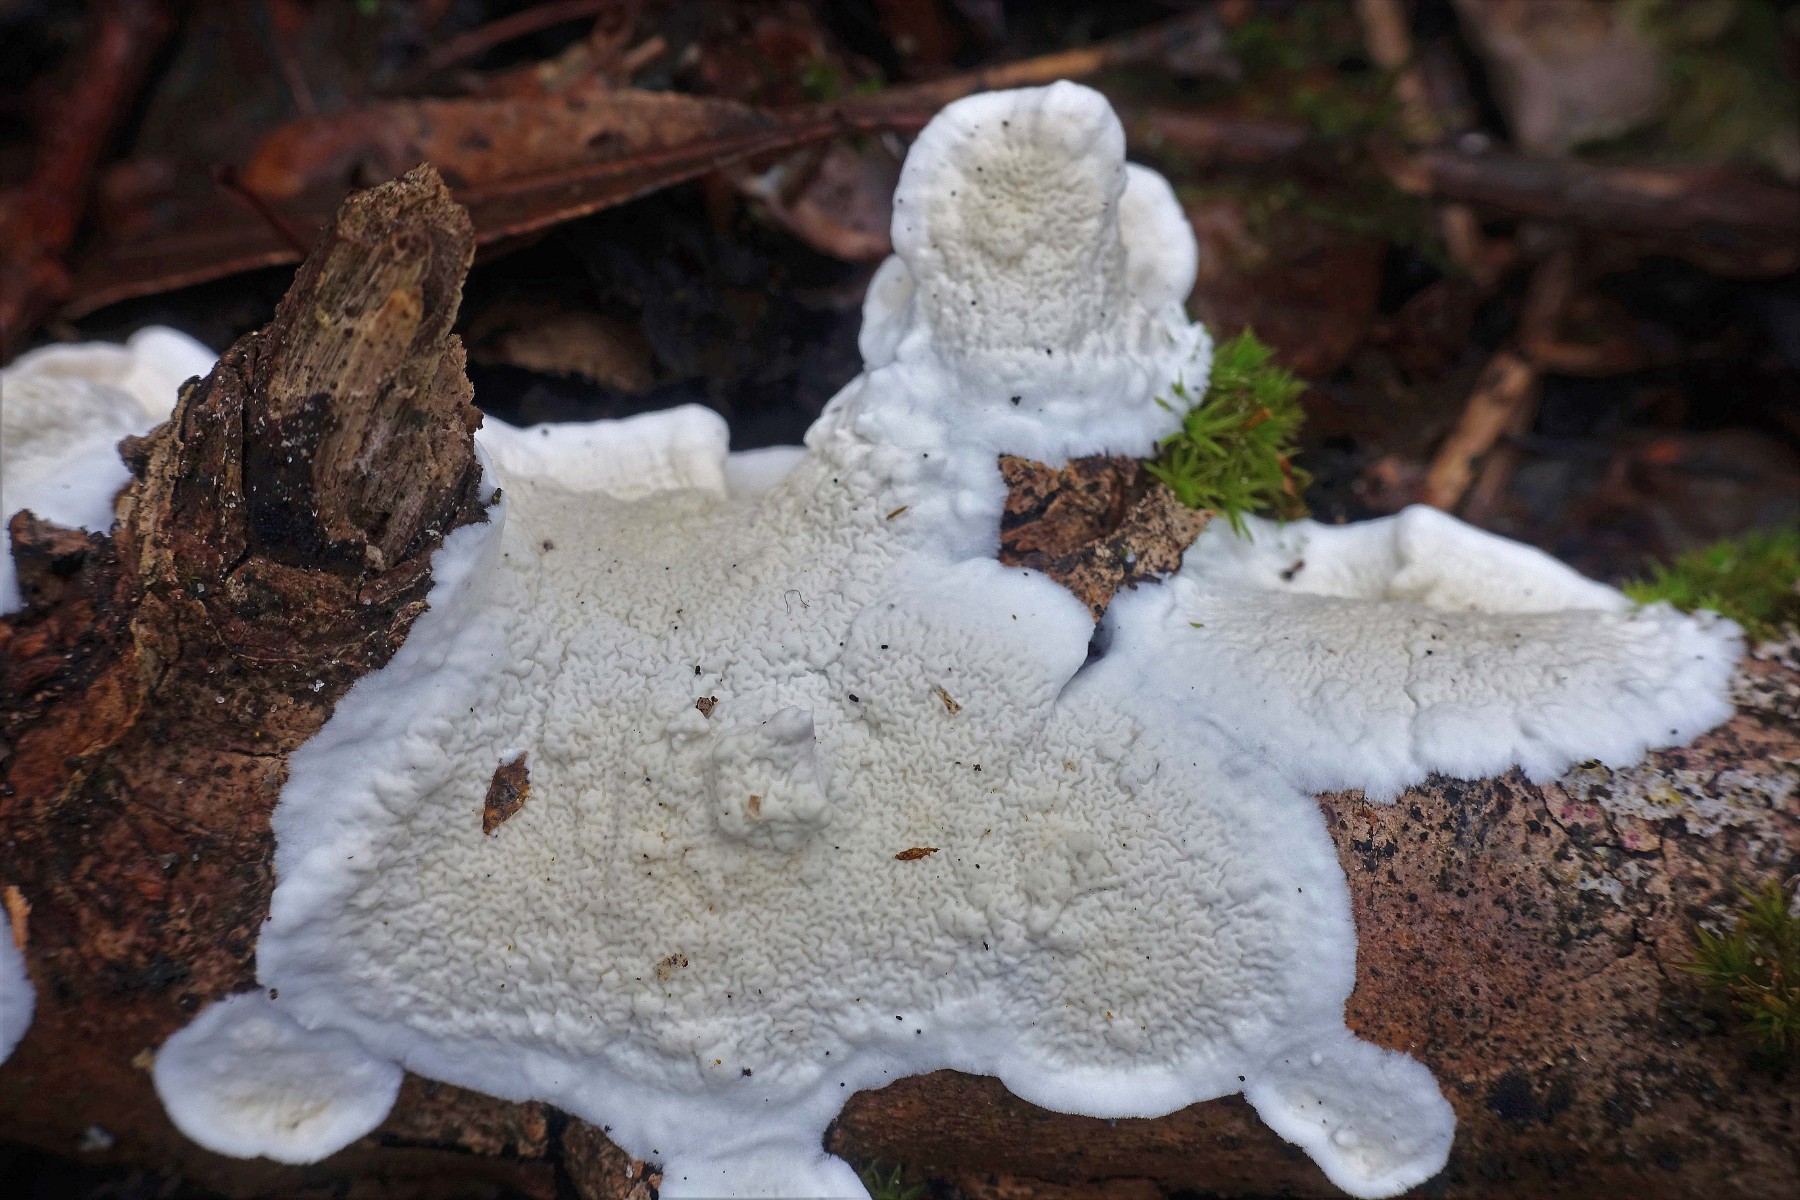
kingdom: Fungi
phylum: Basidiomycota
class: Agaricomycetes
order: Polyporales
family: Irpicaceae
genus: Byssomerulius
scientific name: Byssomerulius corium
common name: læder-åresvamp
